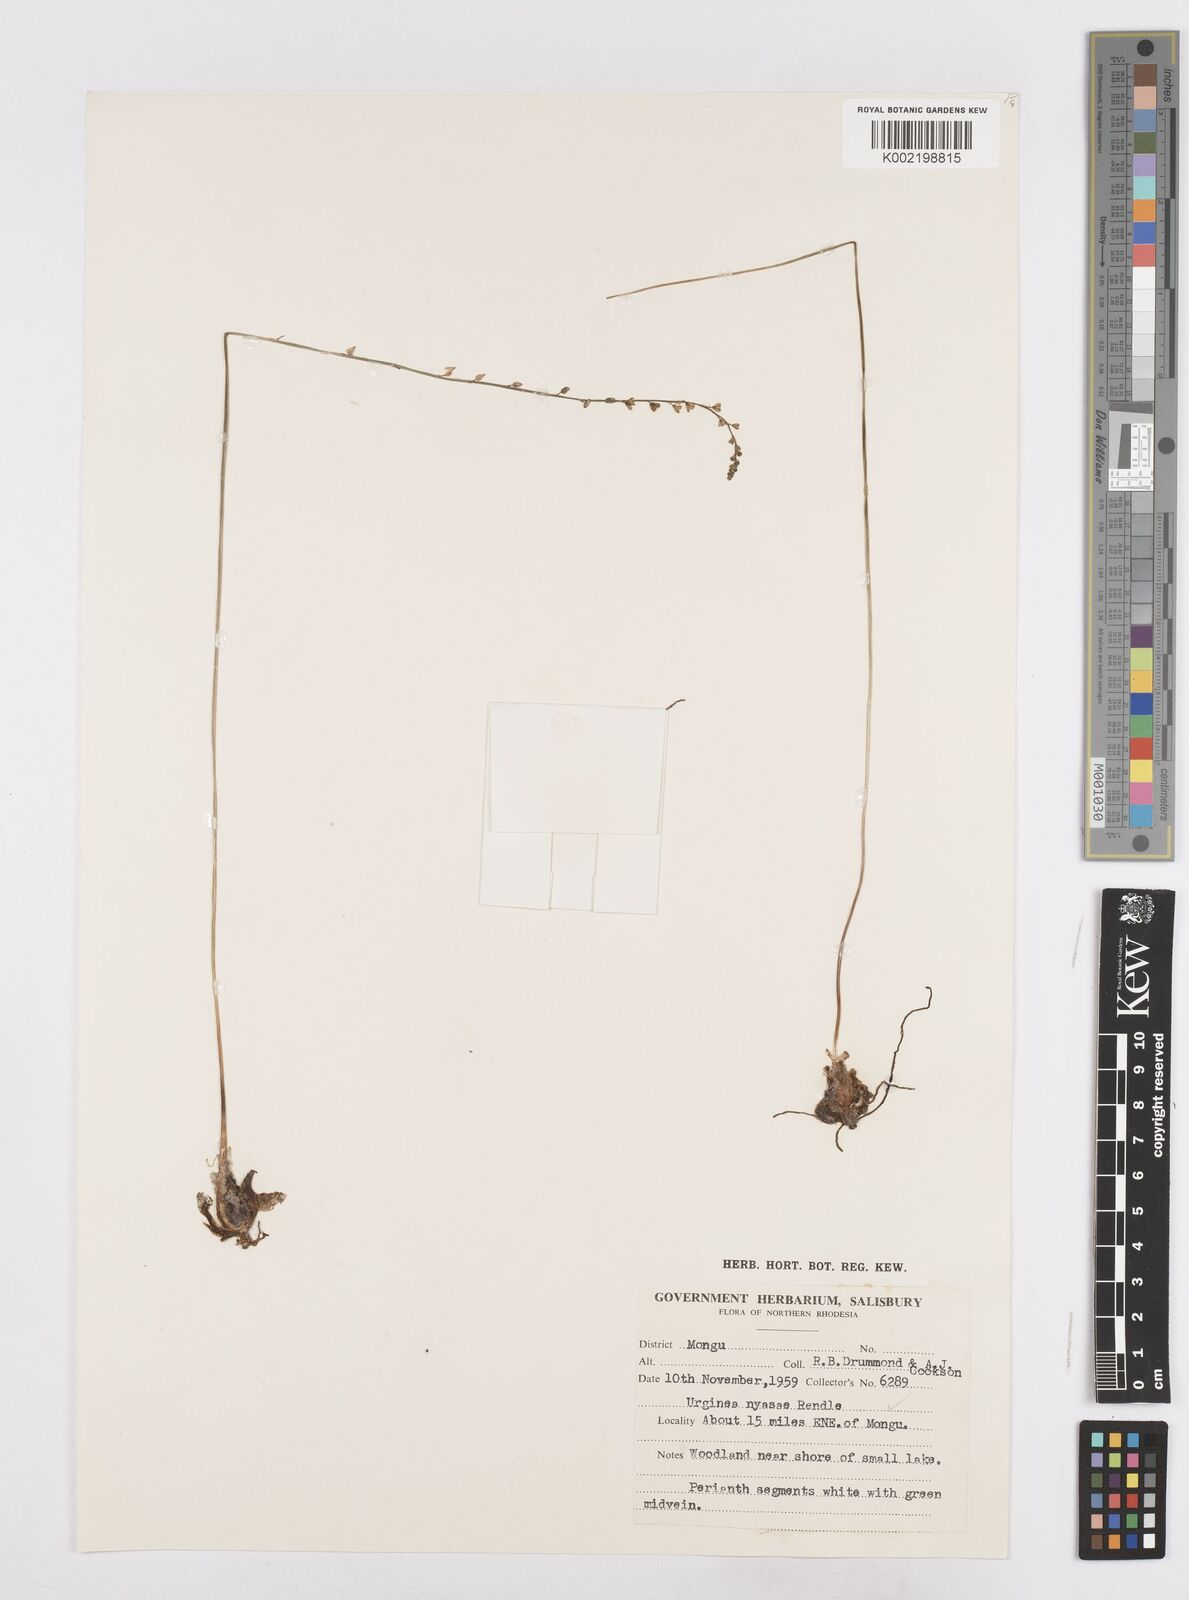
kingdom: Plantae
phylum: Tracheophyta
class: Liliopsida
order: Asparagales
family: Asparagaceae
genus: Drimia
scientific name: Drimia
